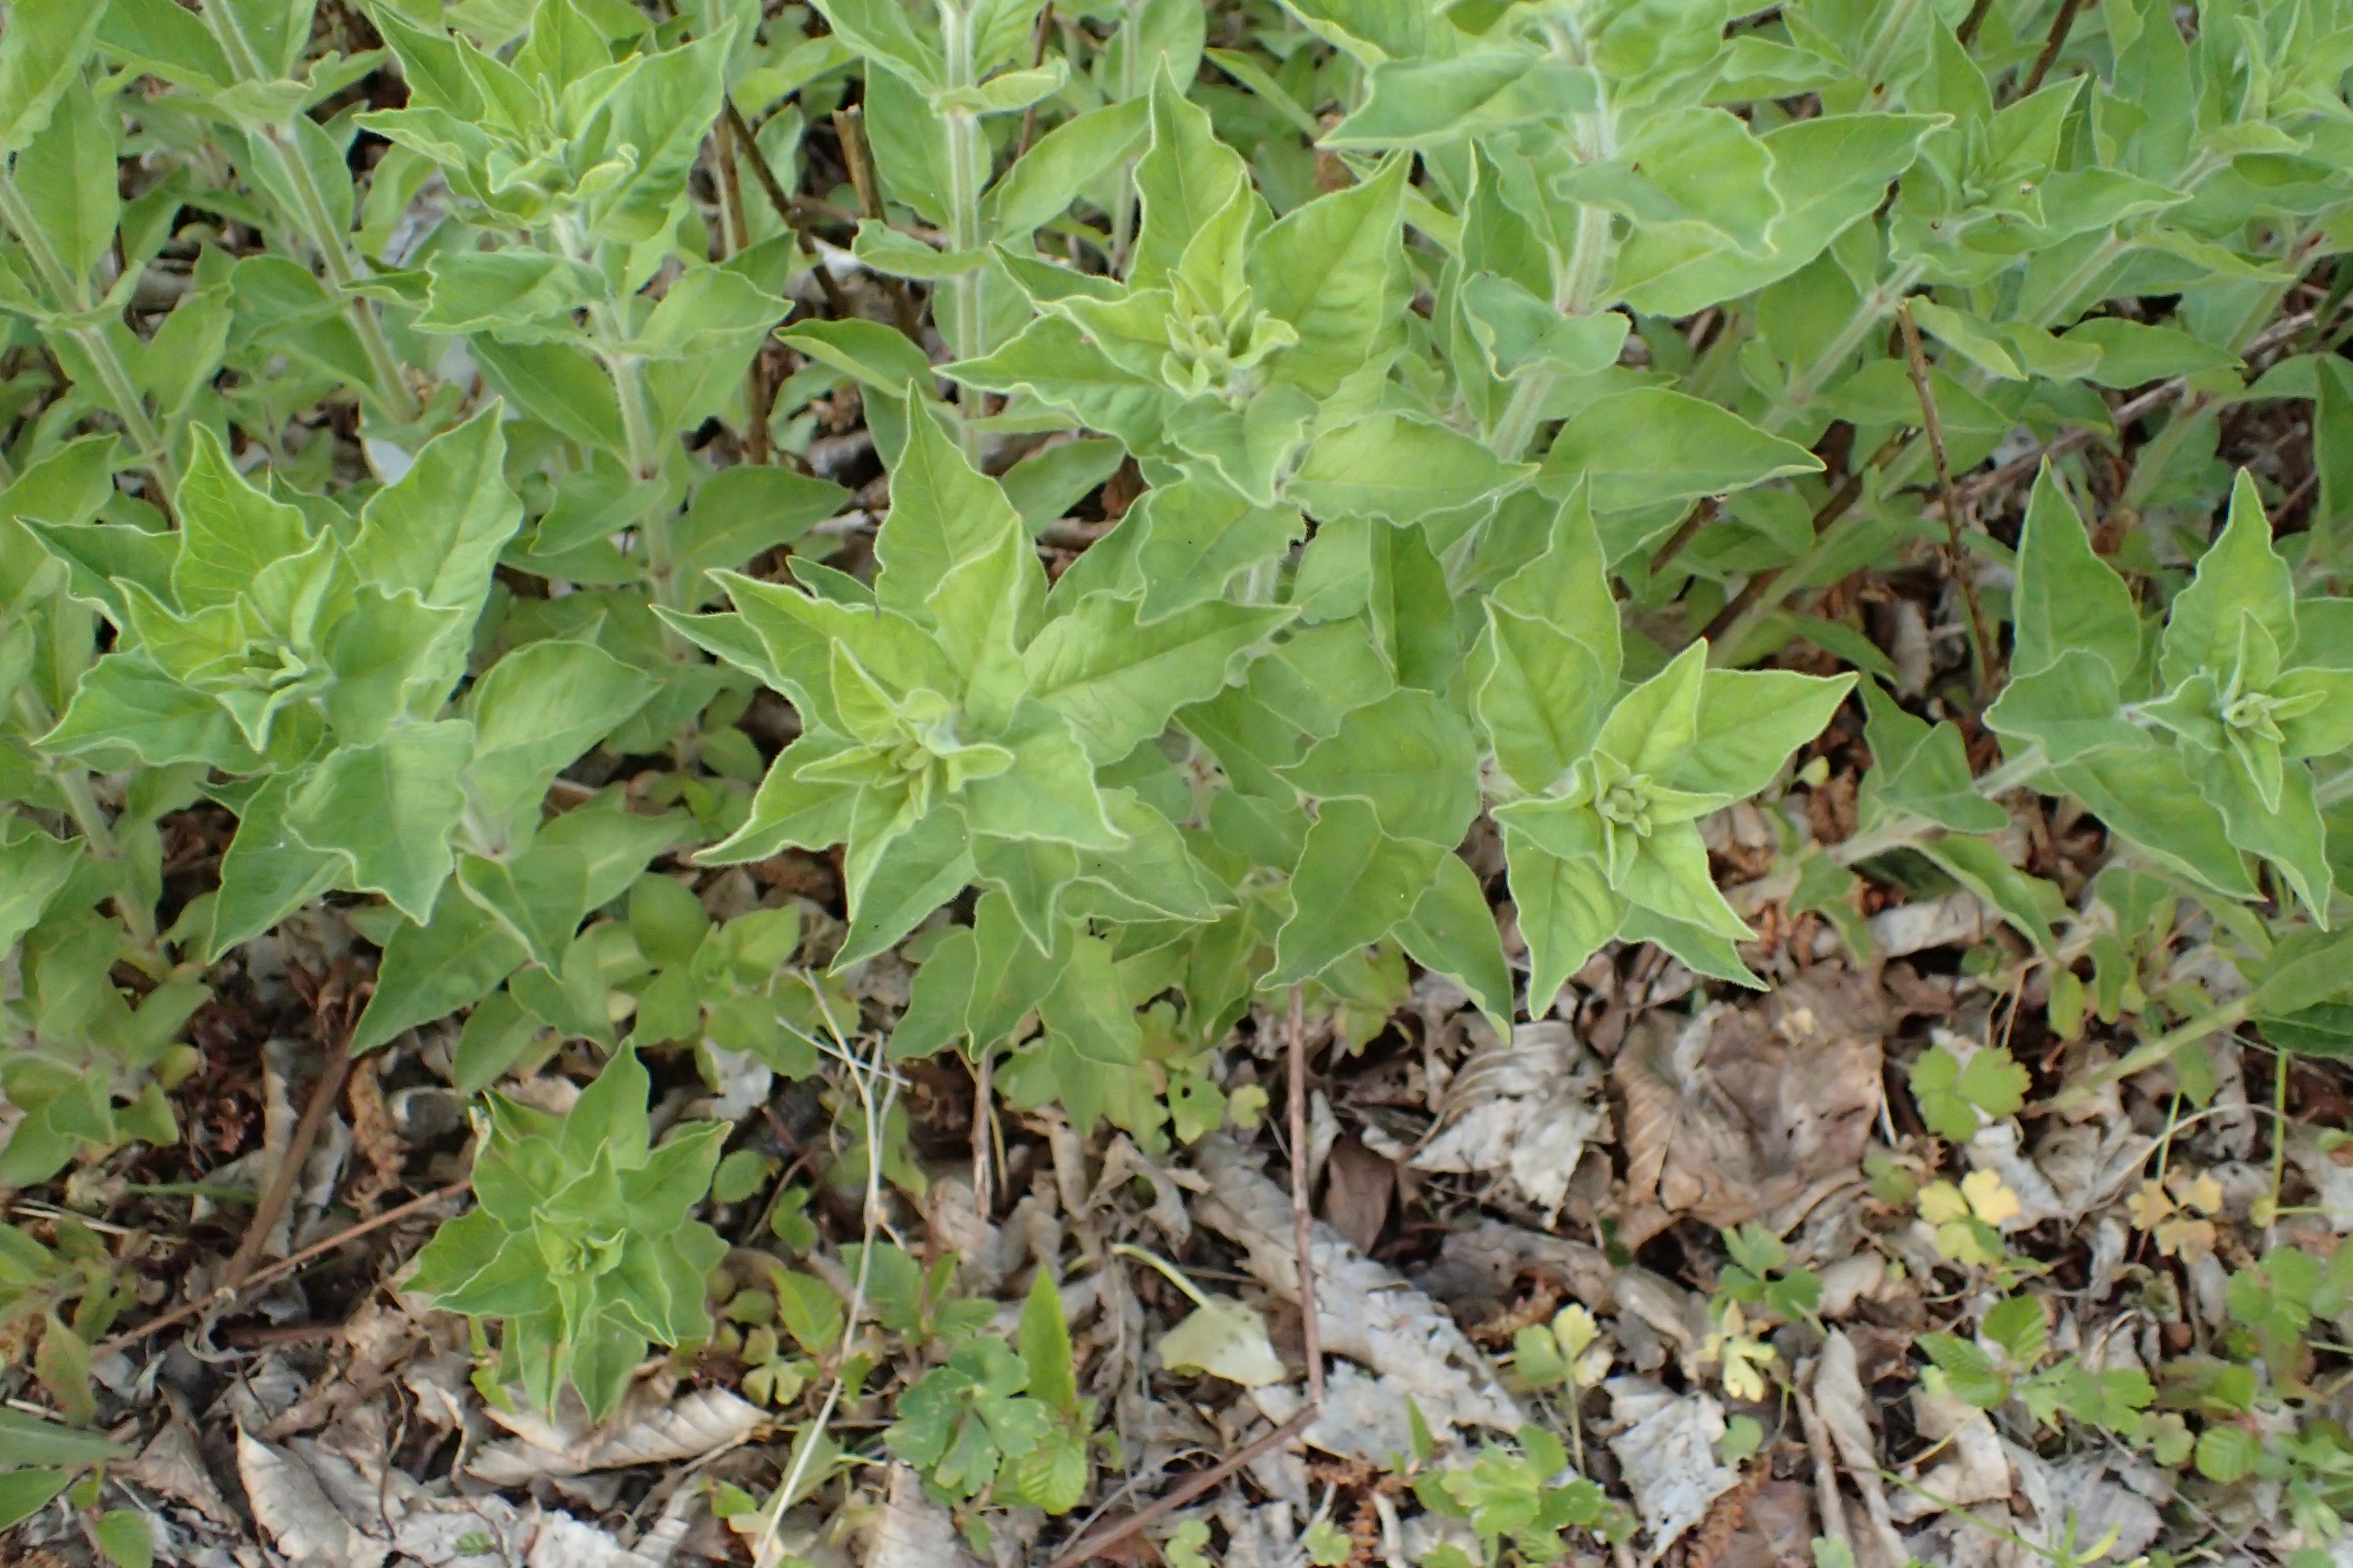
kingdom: Plantae
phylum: Tracheophyta
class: Magnoliopsida
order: Ericales
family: Primulaceae
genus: Lysimachia
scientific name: Lysimachia punctata
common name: Prikbladet fredløs
